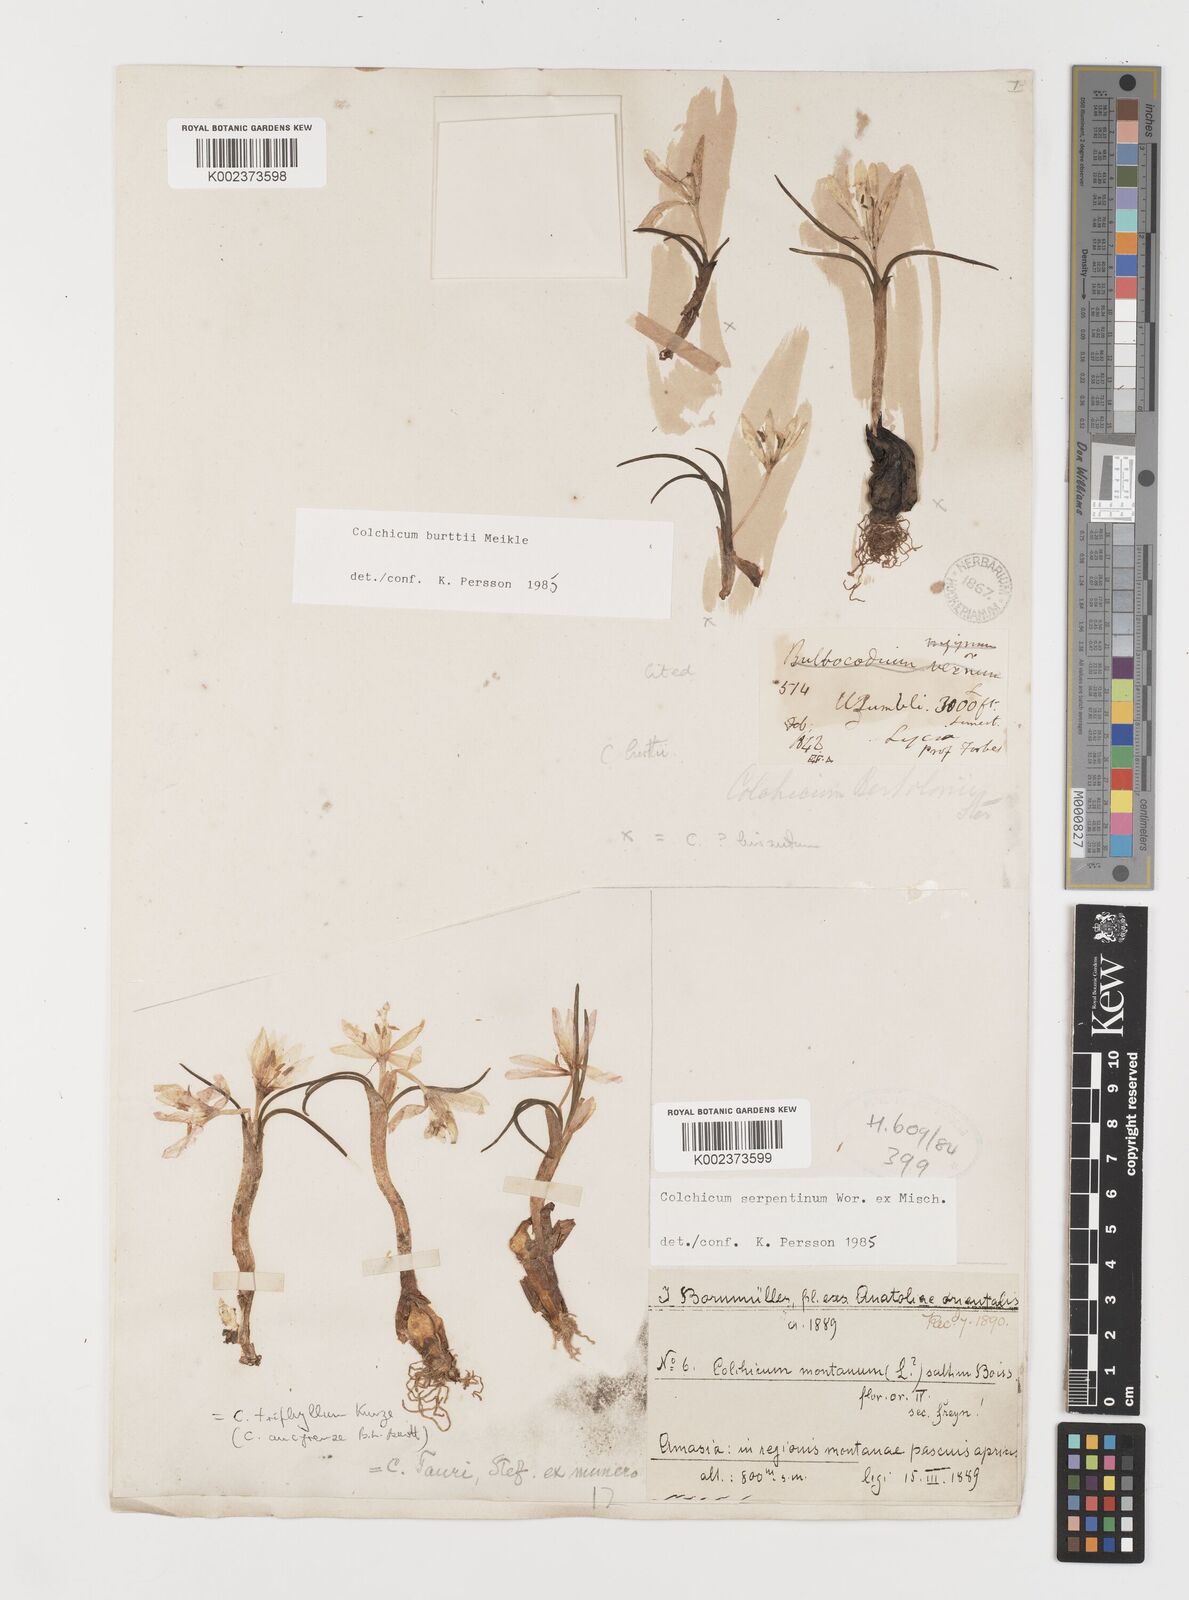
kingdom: Plantae
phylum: Tracheophyta
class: Liliopsida
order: Liliales
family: Colchicaceae
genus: Colchicum
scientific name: Colchicum serpentinum
